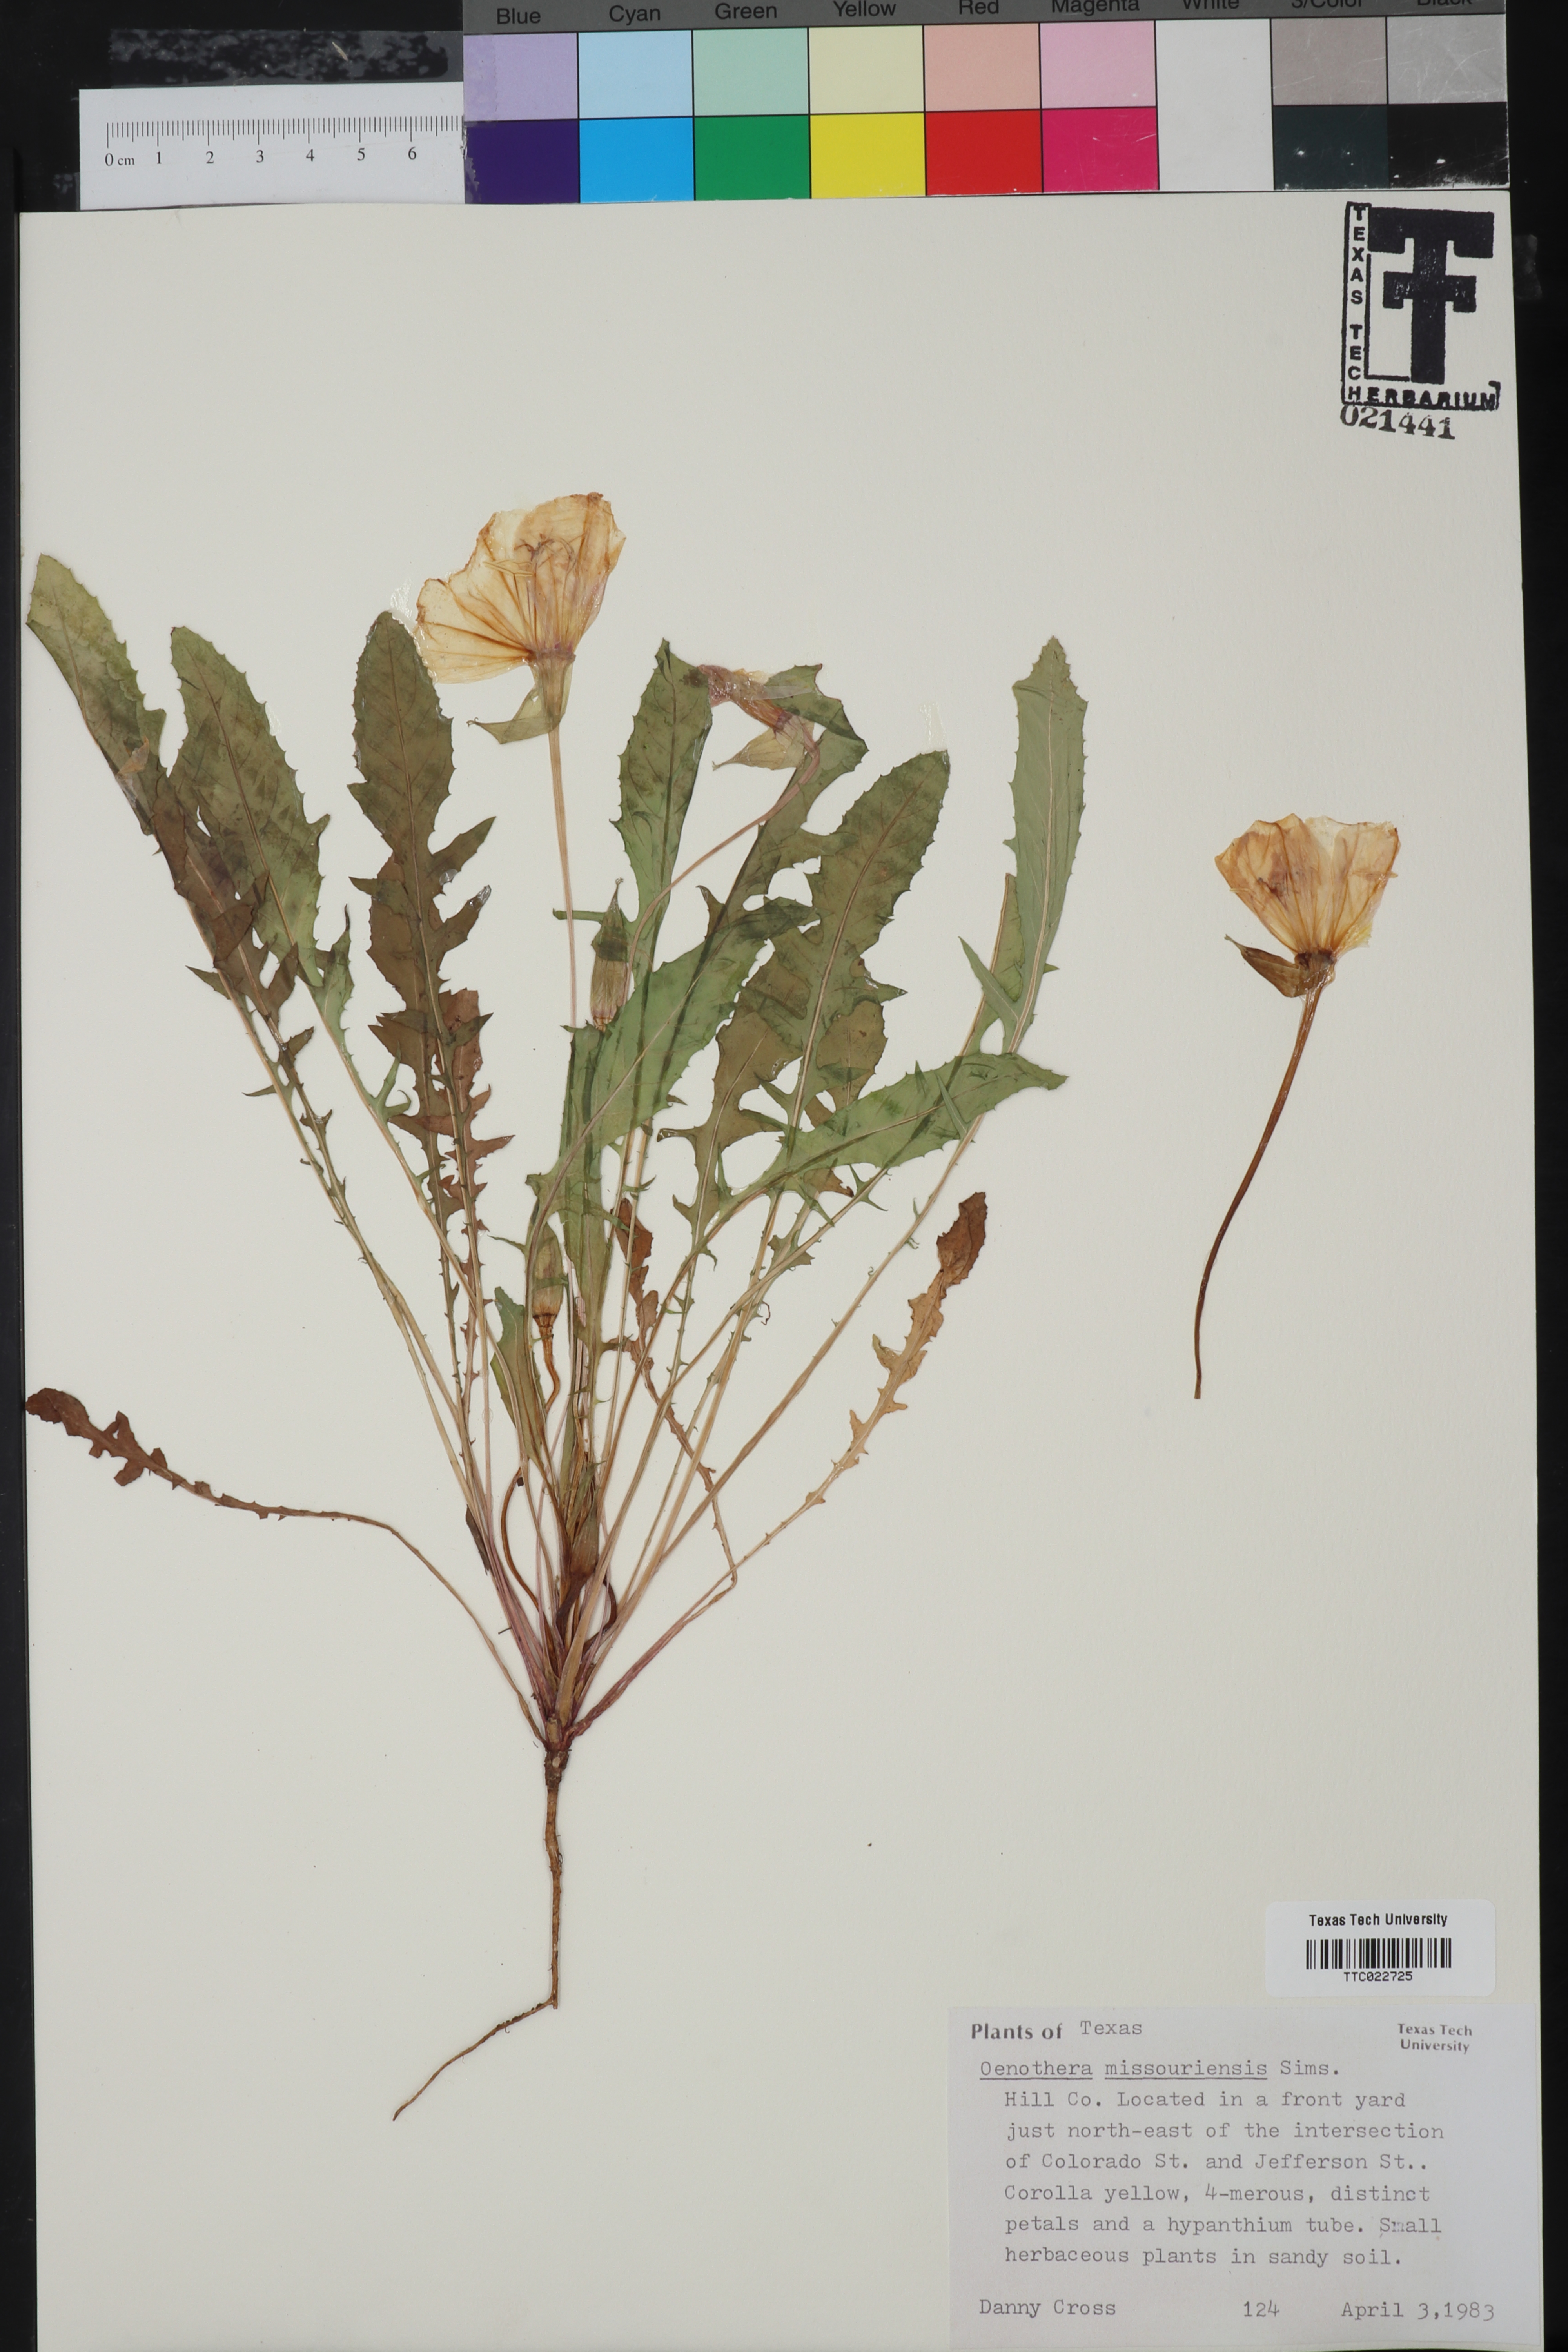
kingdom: Plantae
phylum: Tracheophyta
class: Magnoliopsida
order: Myrtales
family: Onagraceae
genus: Oenothera
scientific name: Oenothera macrocarpa
